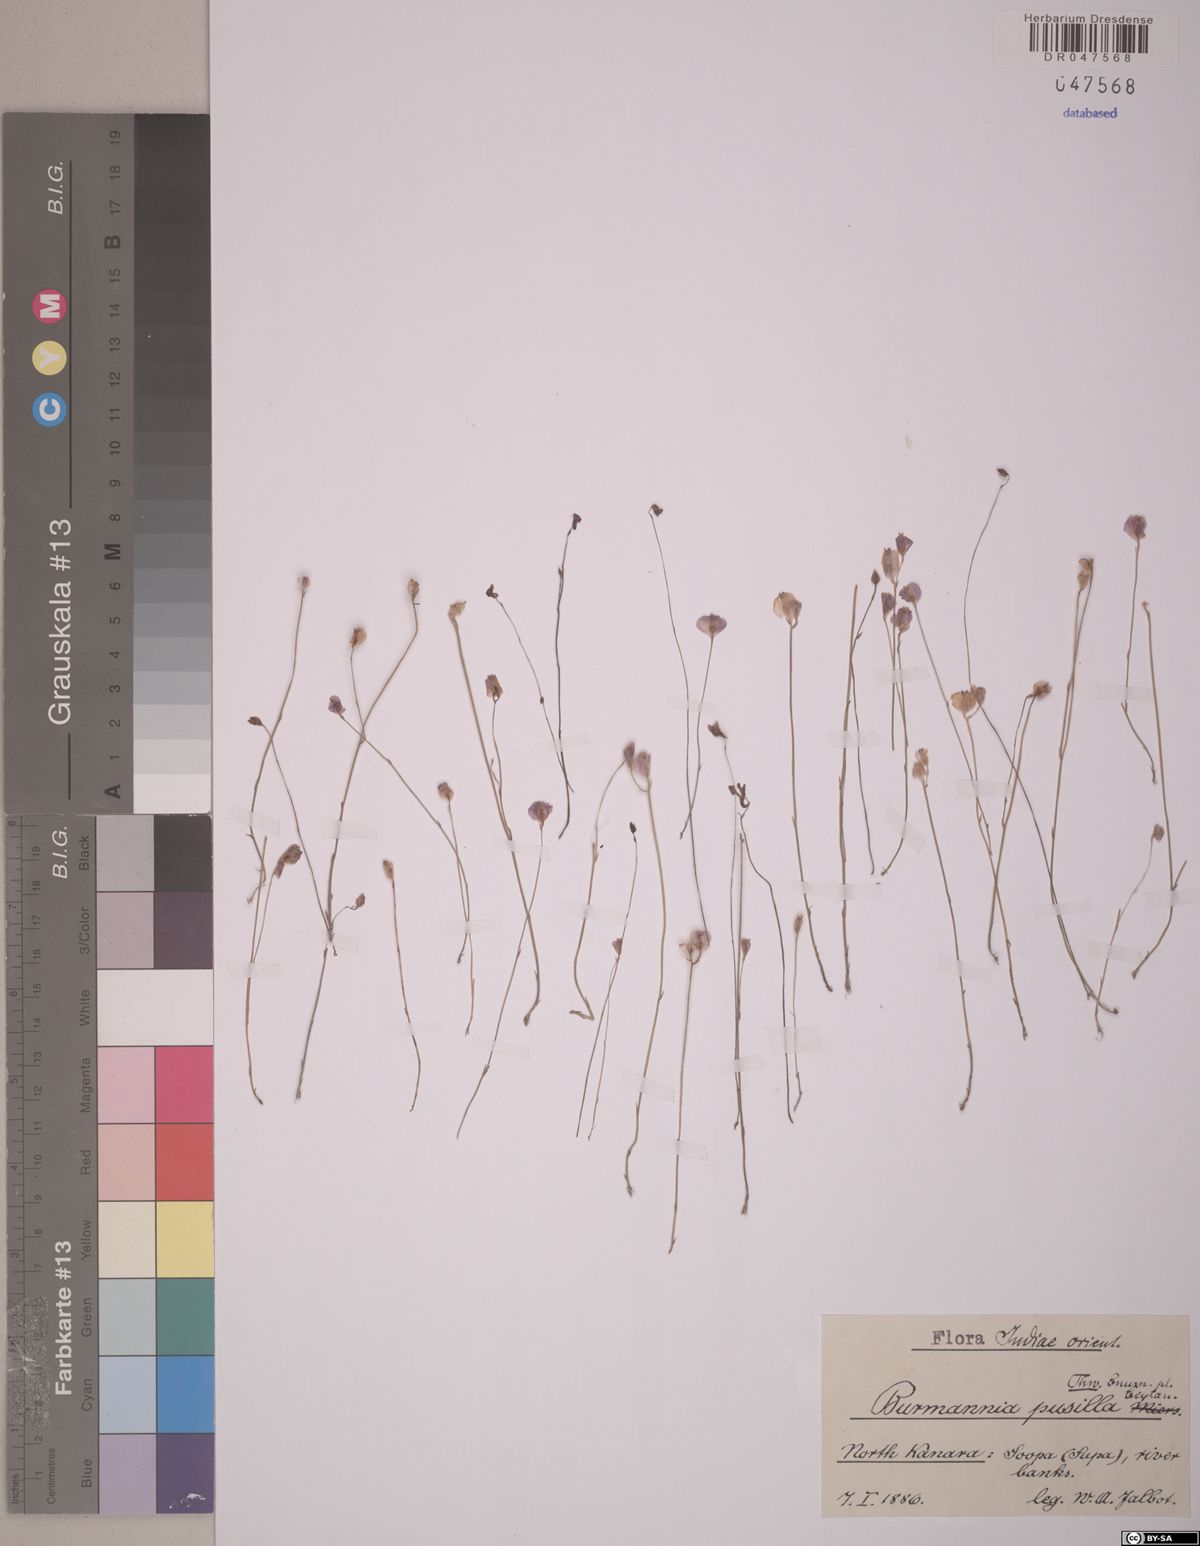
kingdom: Plantae
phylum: Tracheophyta
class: Liliopsida
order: Dioscoreales
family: Burmanniaceae
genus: Burmannia
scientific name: Burmannia pusilla
